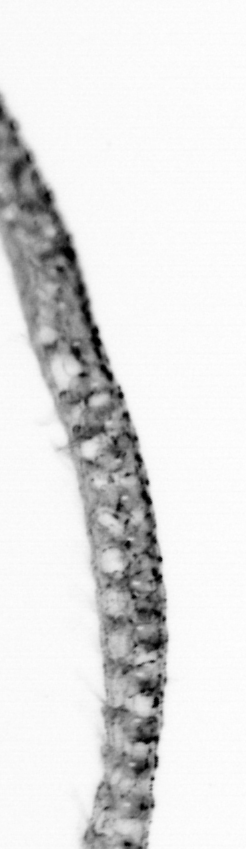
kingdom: Animalia
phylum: Annelida
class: Polychaeta
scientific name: Polychaeta
